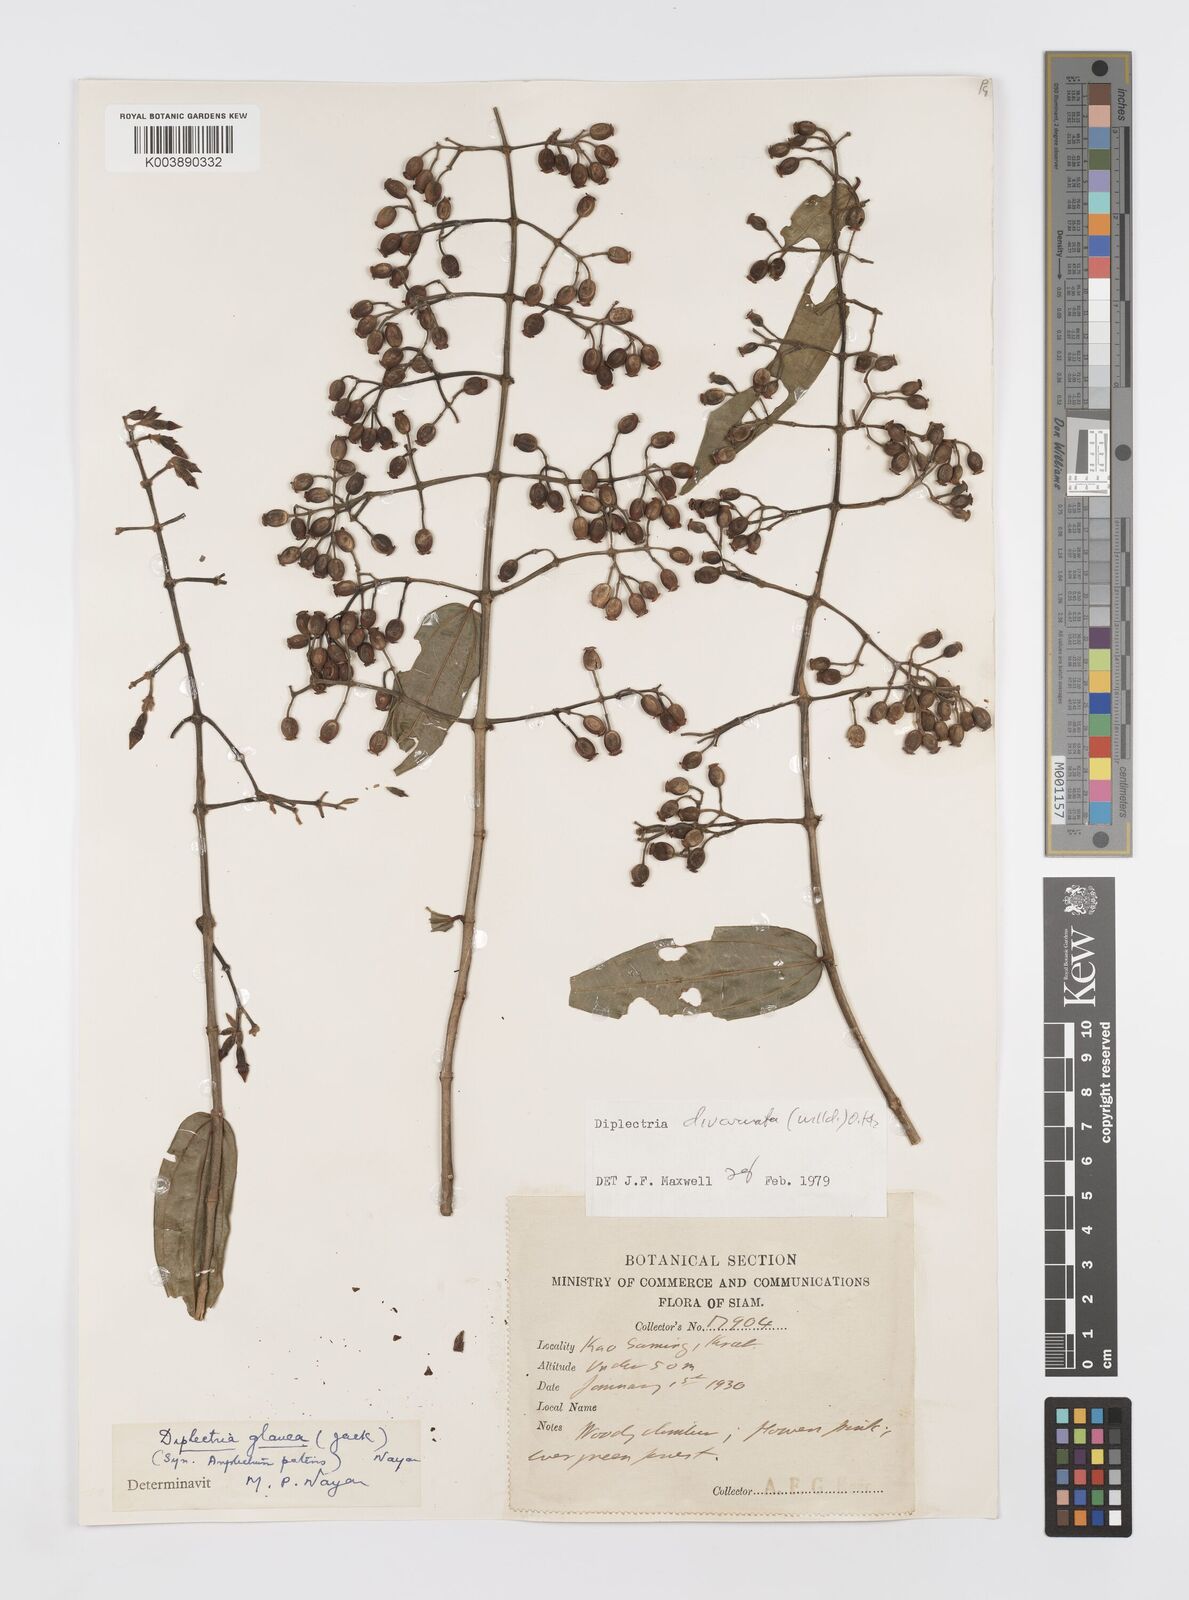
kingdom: Plantae
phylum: Tracheophyta
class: Magnoliopsida
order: Myrtales
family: Melastomataceae
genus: Diplectria
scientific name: Diplectria divaricata
